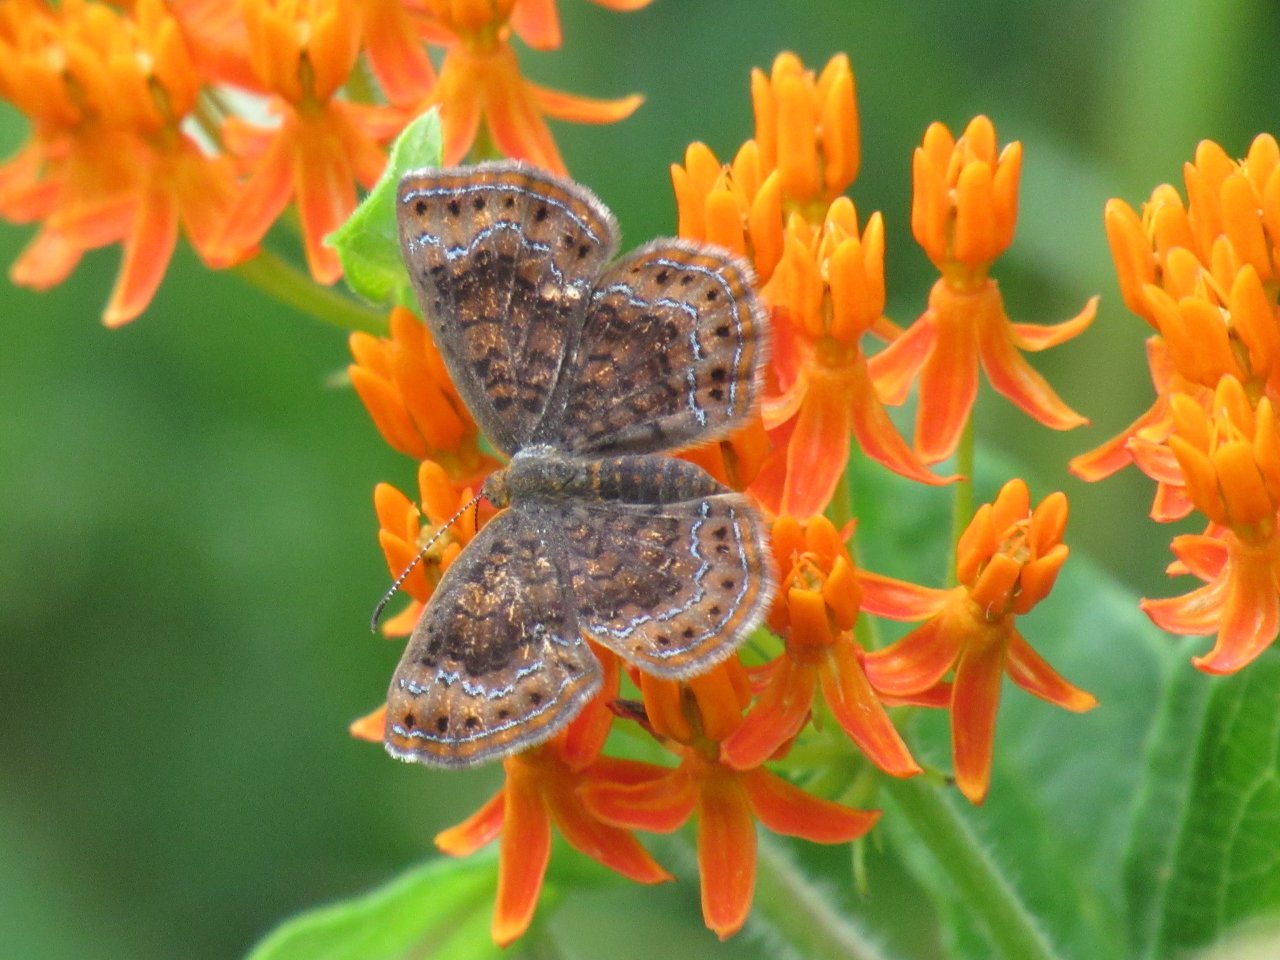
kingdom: Animalia
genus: Calephelis
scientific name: Calephelis borealis
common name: Northern Metalmark
